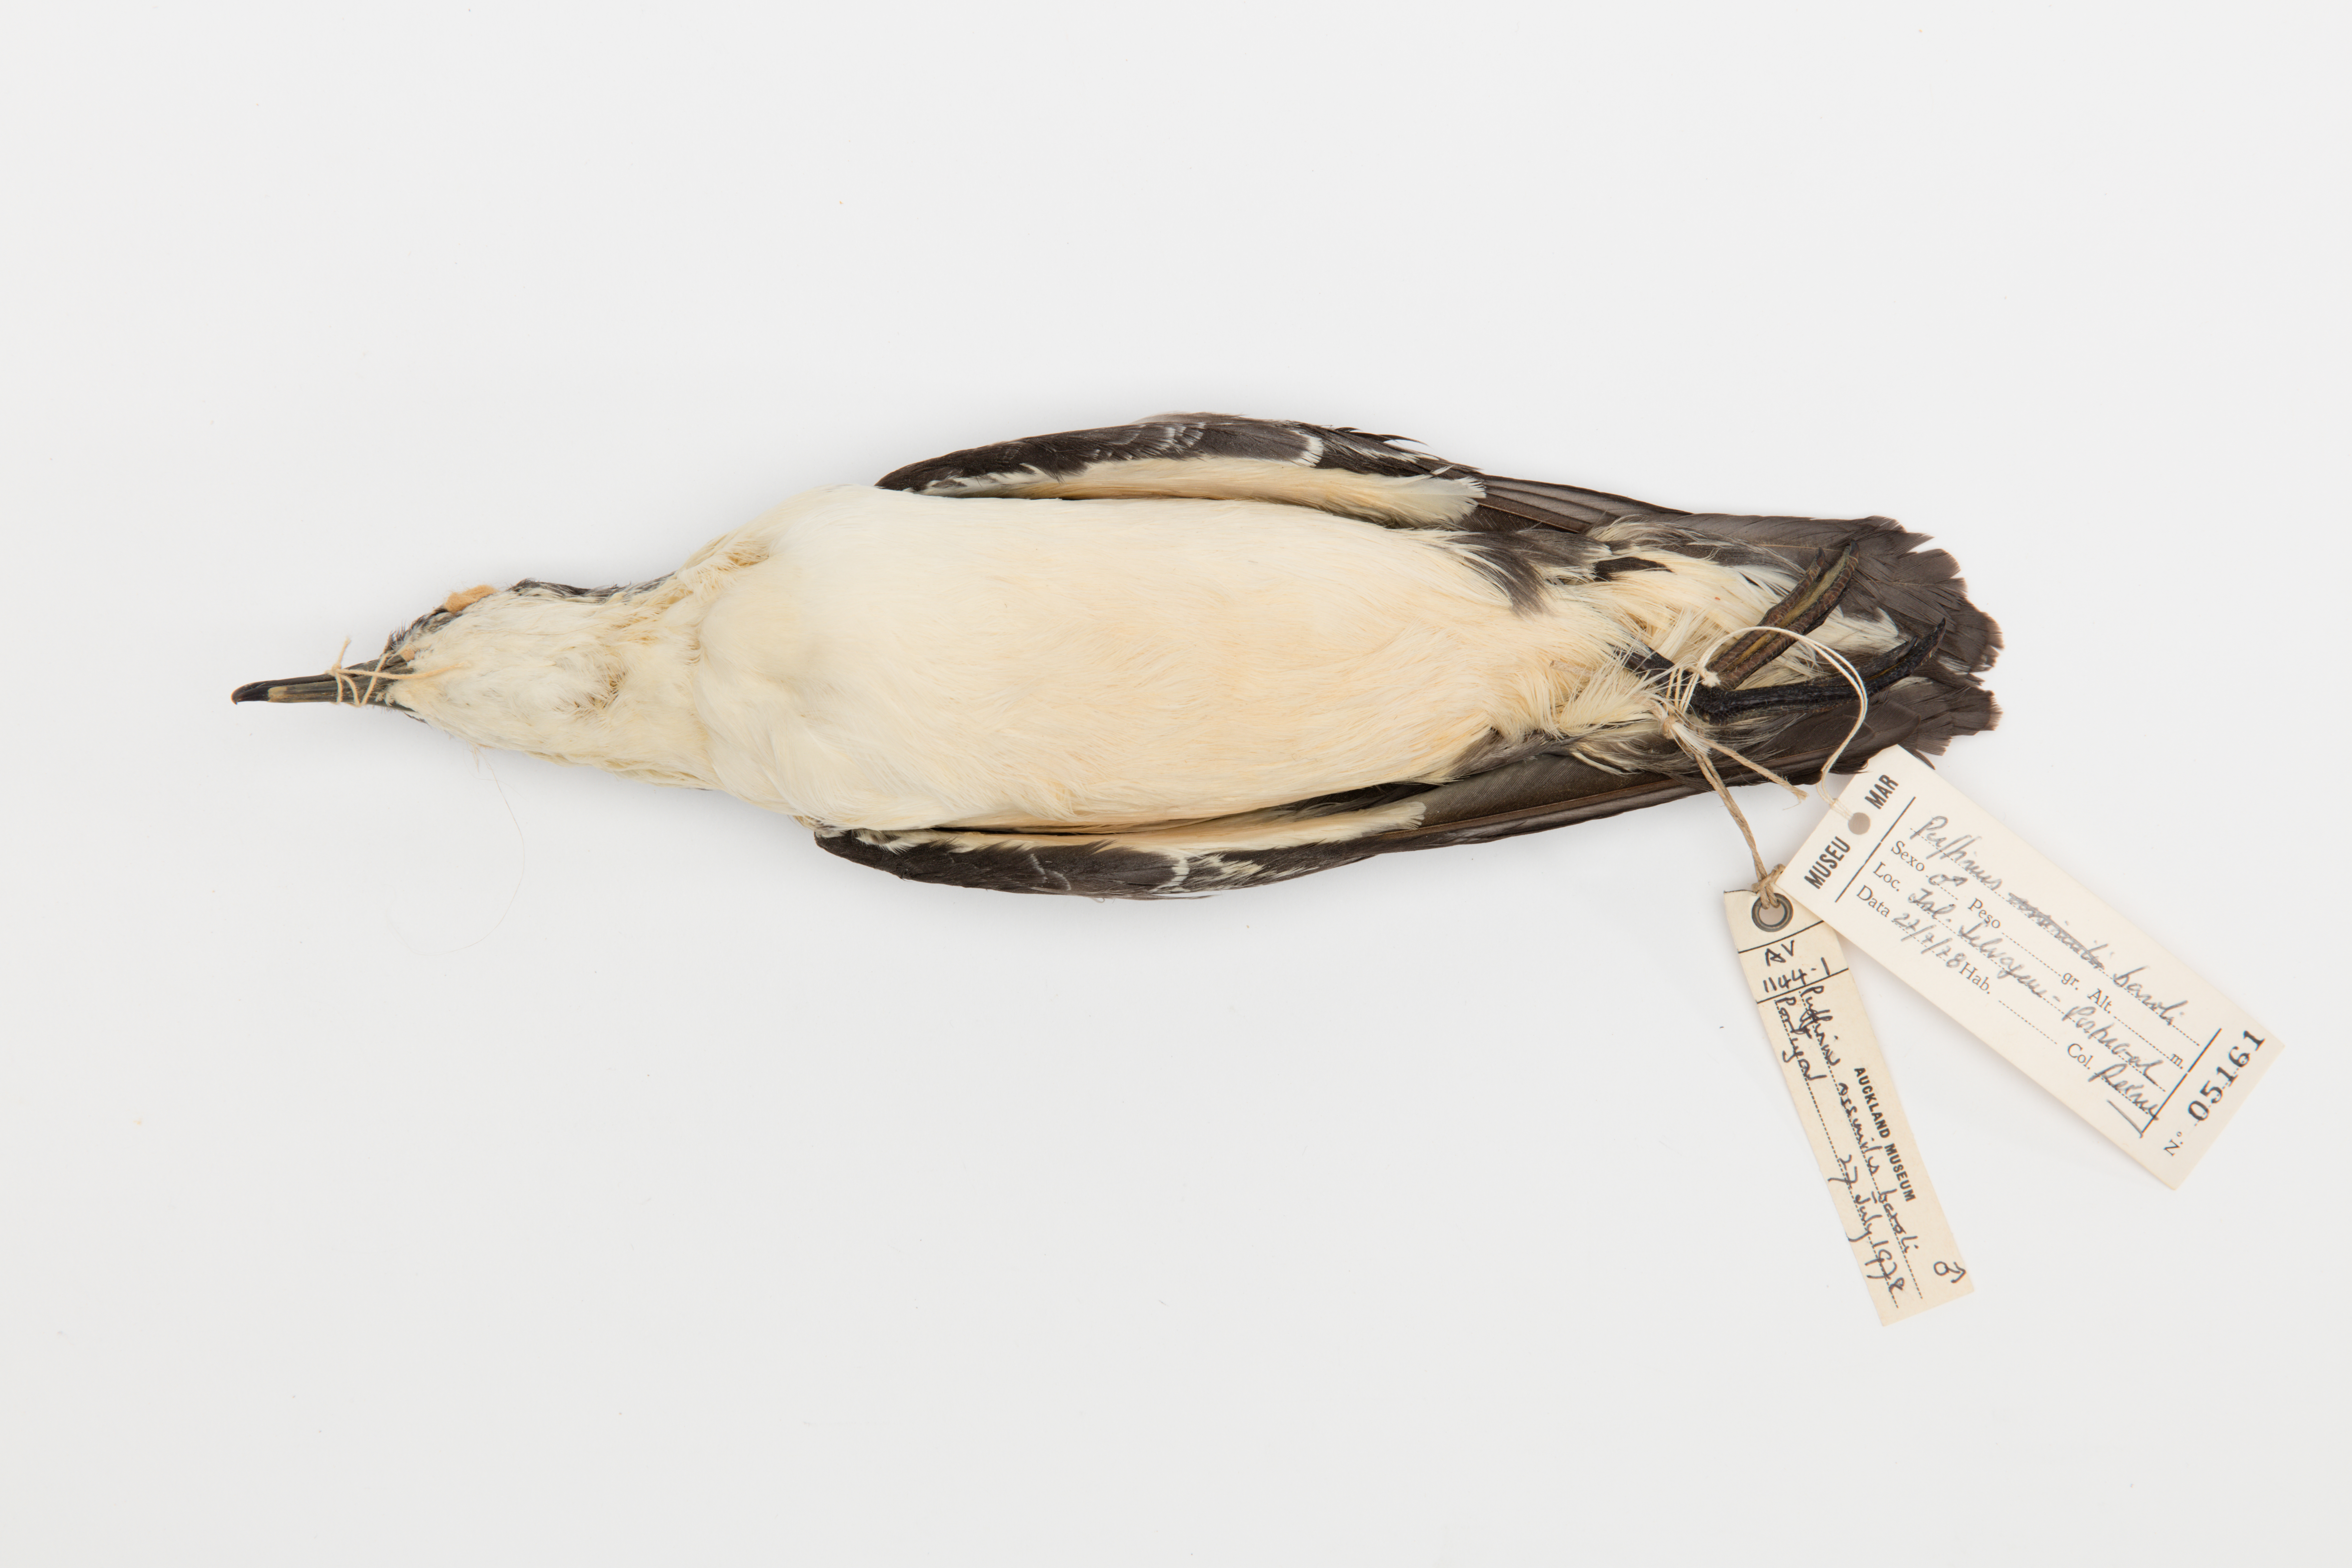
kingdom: Animalia
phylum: Chordata
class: Aves
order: Procellariiformes
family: Procellariidae
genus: Puffinus
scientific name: Puffinus baroli
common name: Barolo shearwater
